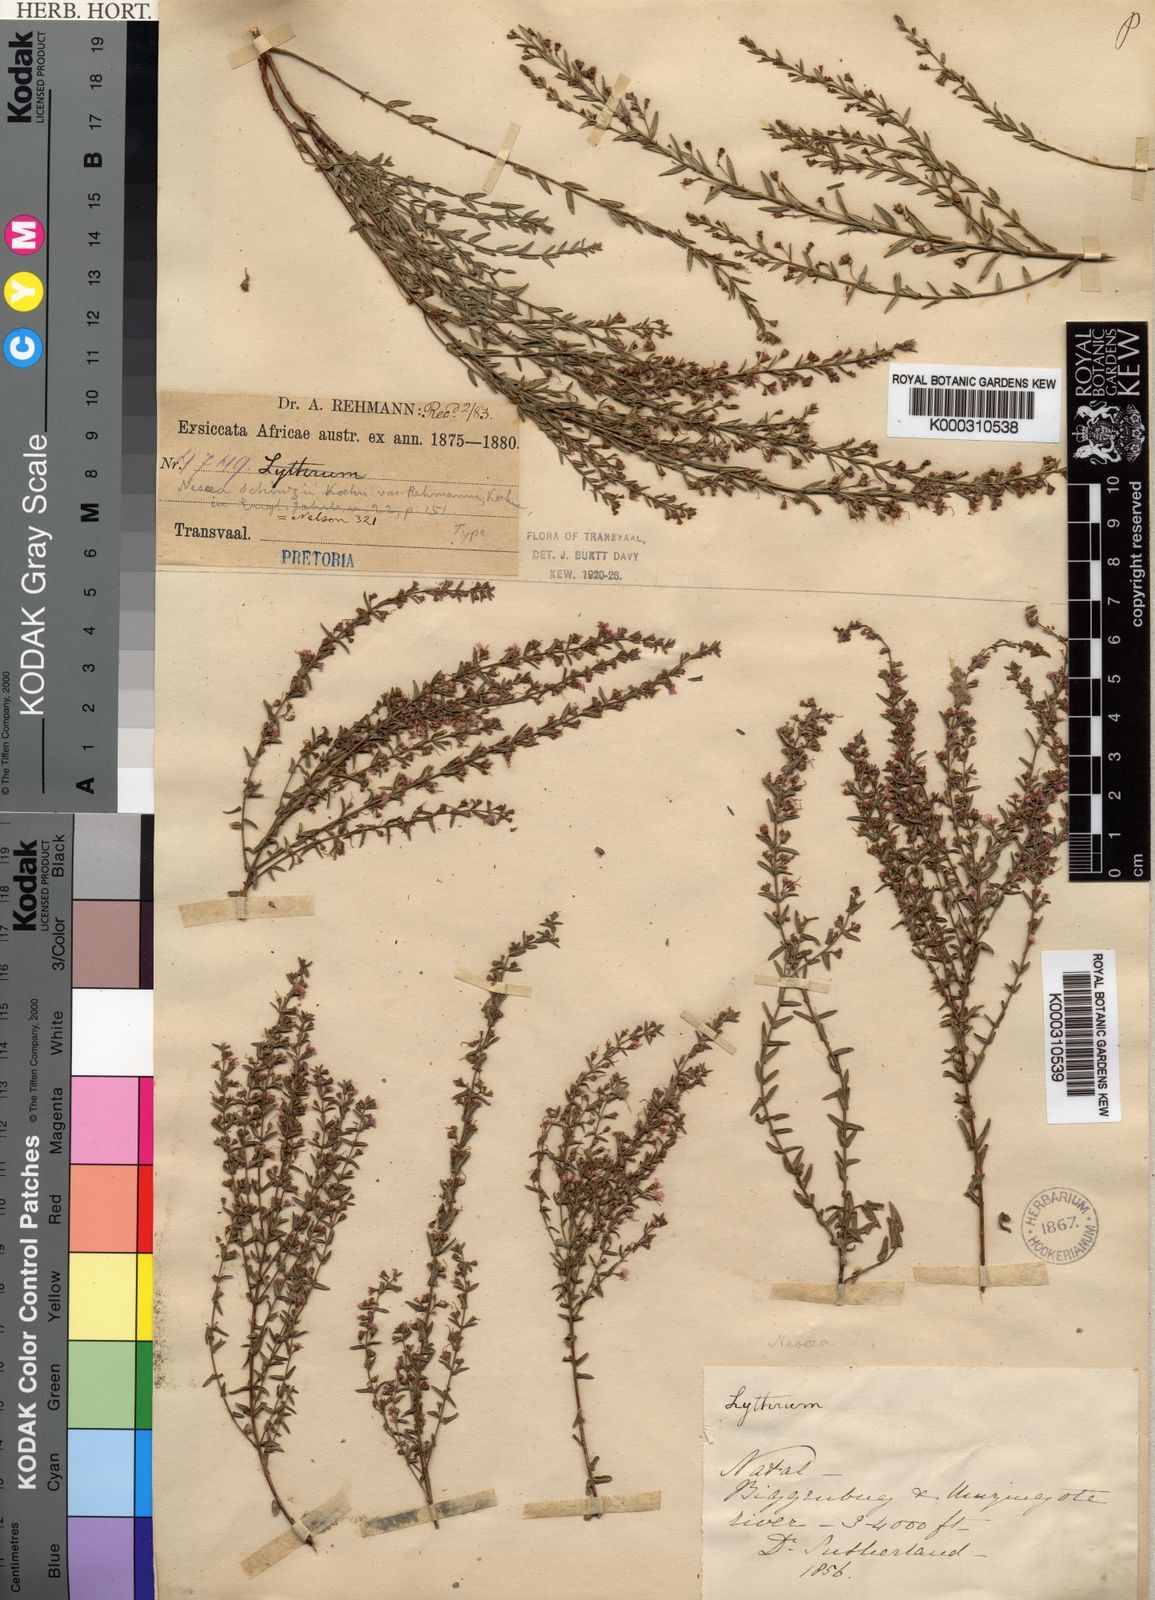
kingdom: Plantae
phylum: Tracheophyta
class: Magnoliopsida
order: Myrtales
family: Lythraceae
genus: Ammannia
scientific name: Ammannia schinzii
